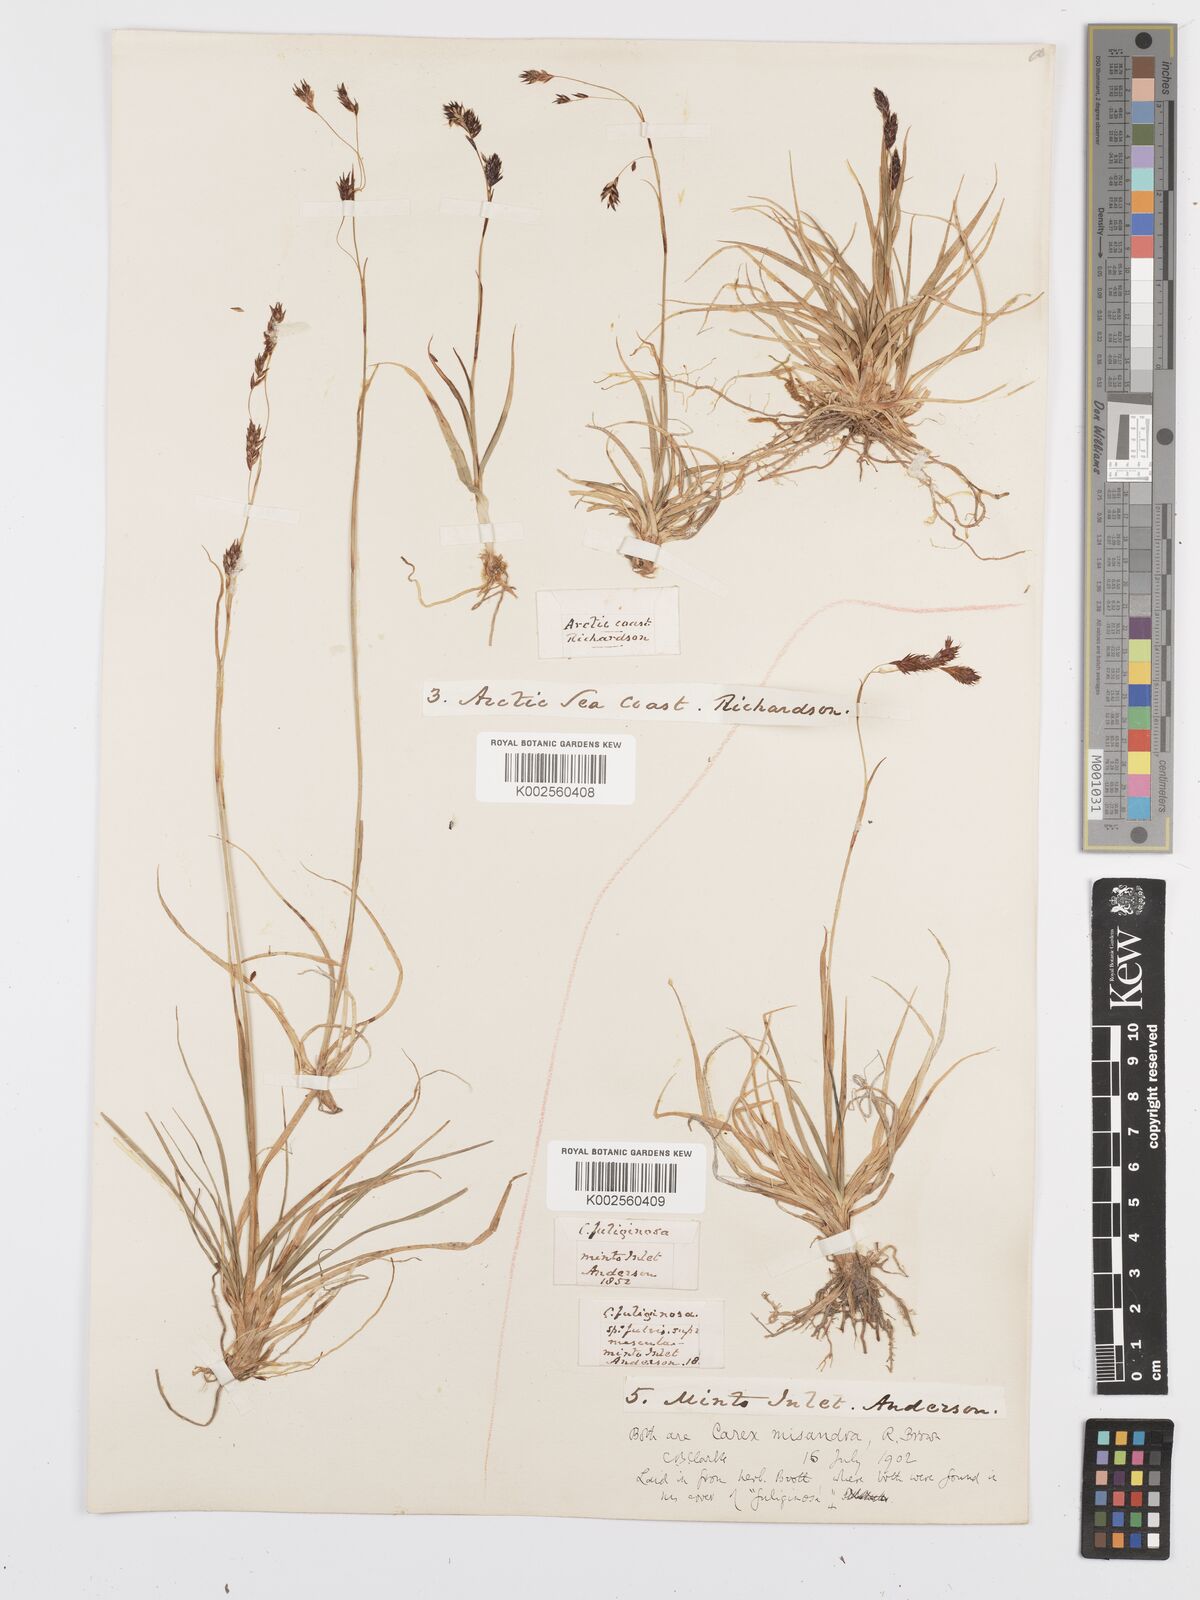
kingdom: Plantae
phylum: Tracheophyta
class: Liliopsida
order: Poales
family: Cyperaceae
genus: Carex
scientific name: Carex fuliginosa
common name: Few-flowered sedge
